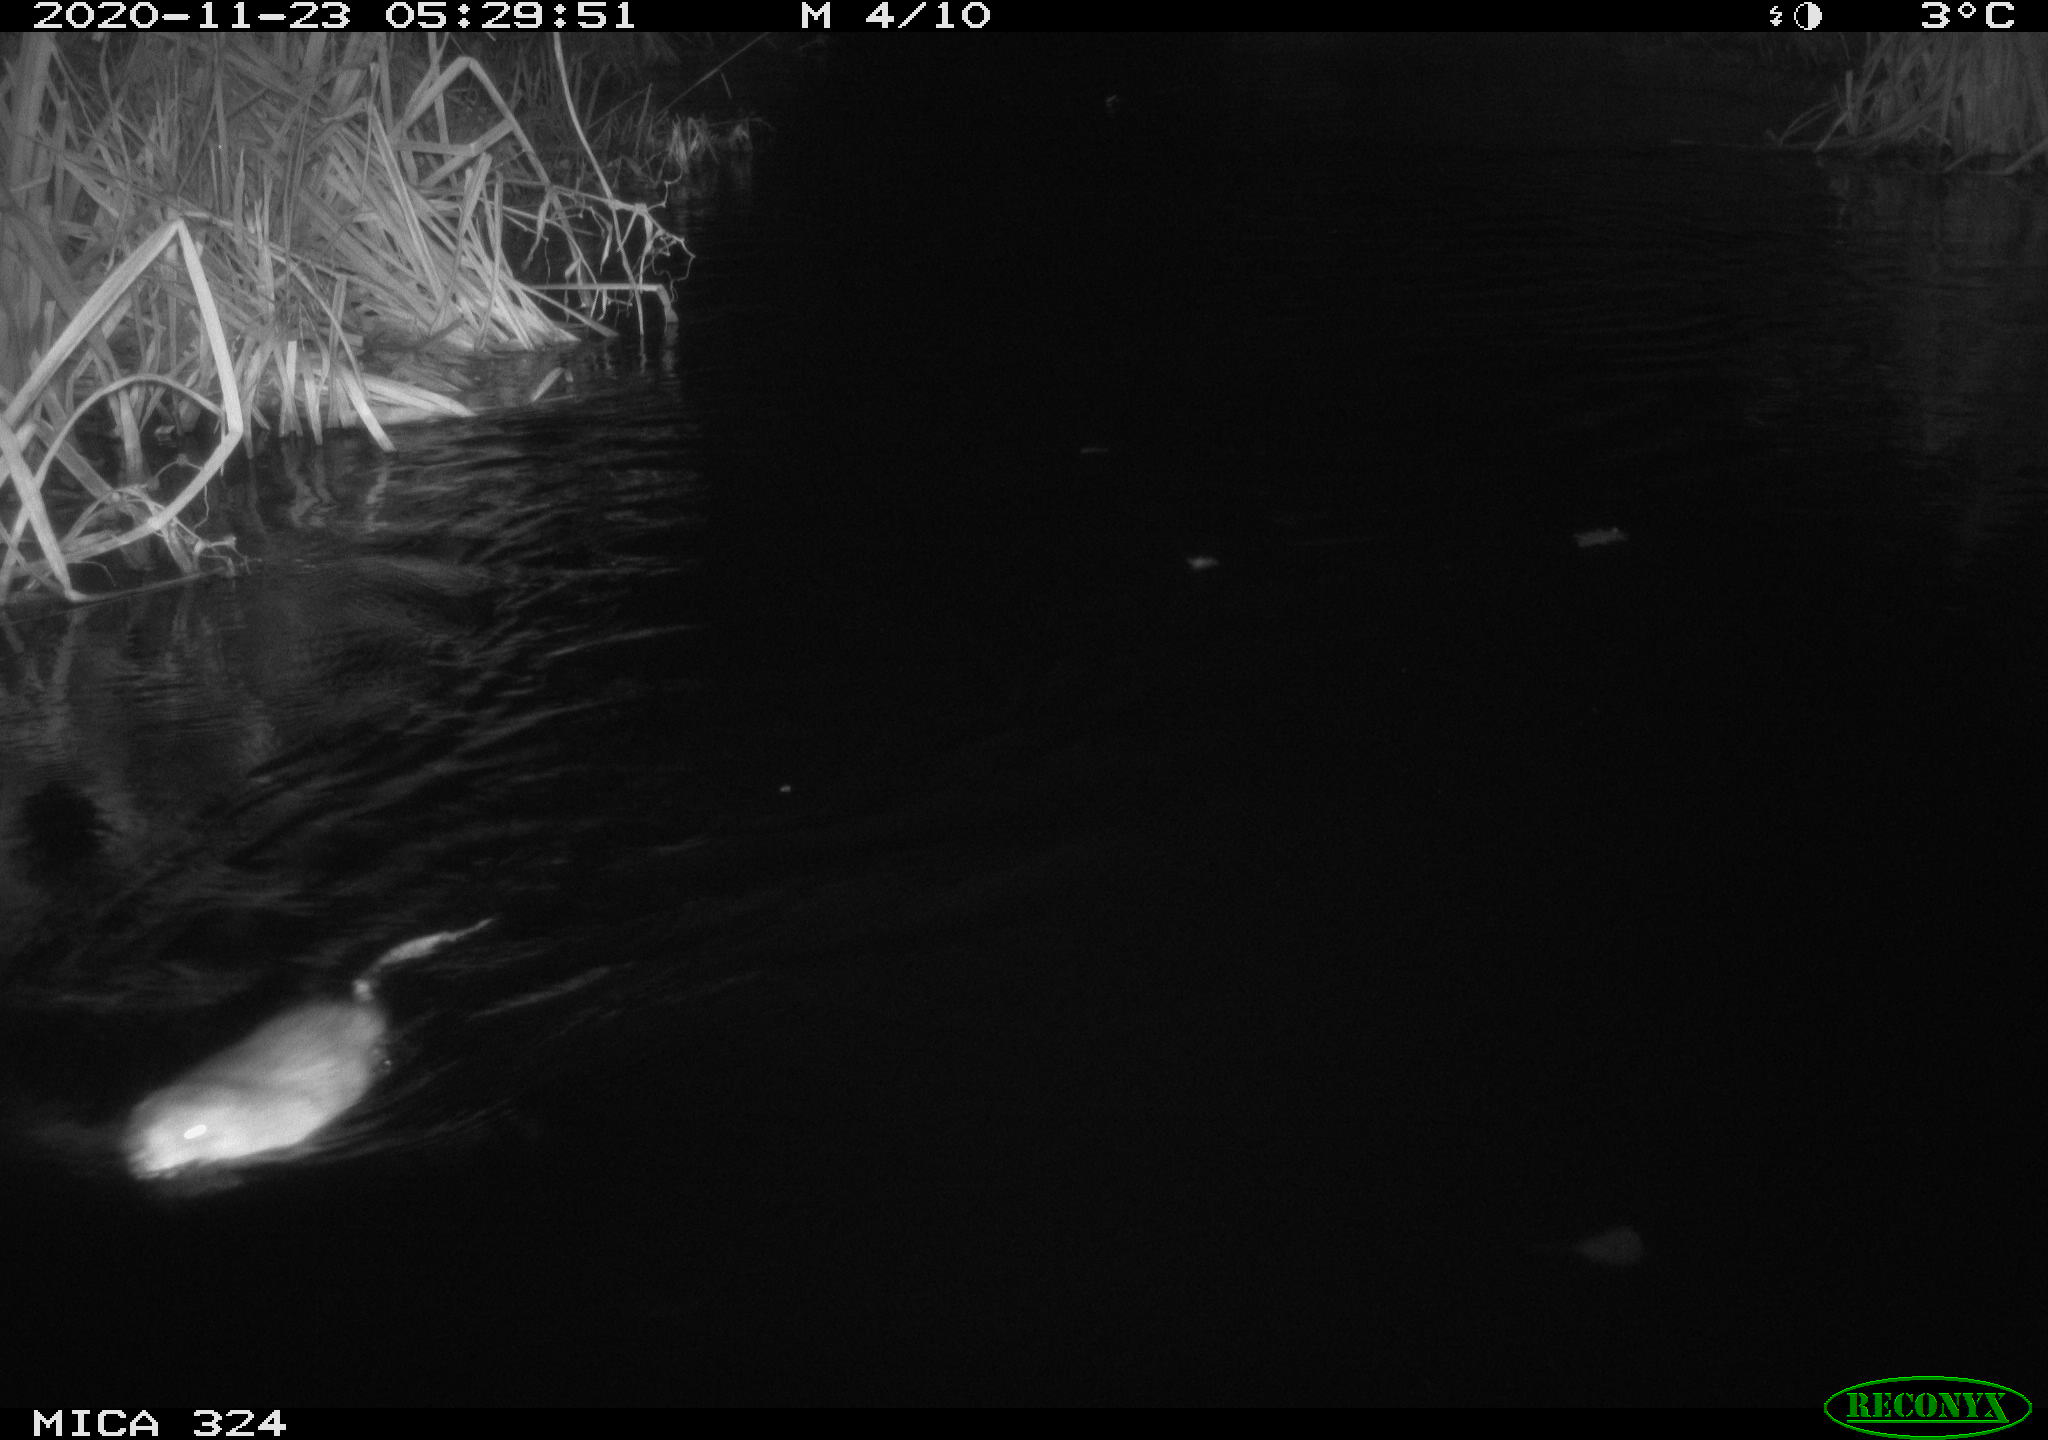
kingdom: Animalia
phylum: Chordata
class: Mammalia
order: Rodentia
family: Cricetidae
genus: Ondatra
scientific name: Ondatra zibethicus
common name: Muskrat
